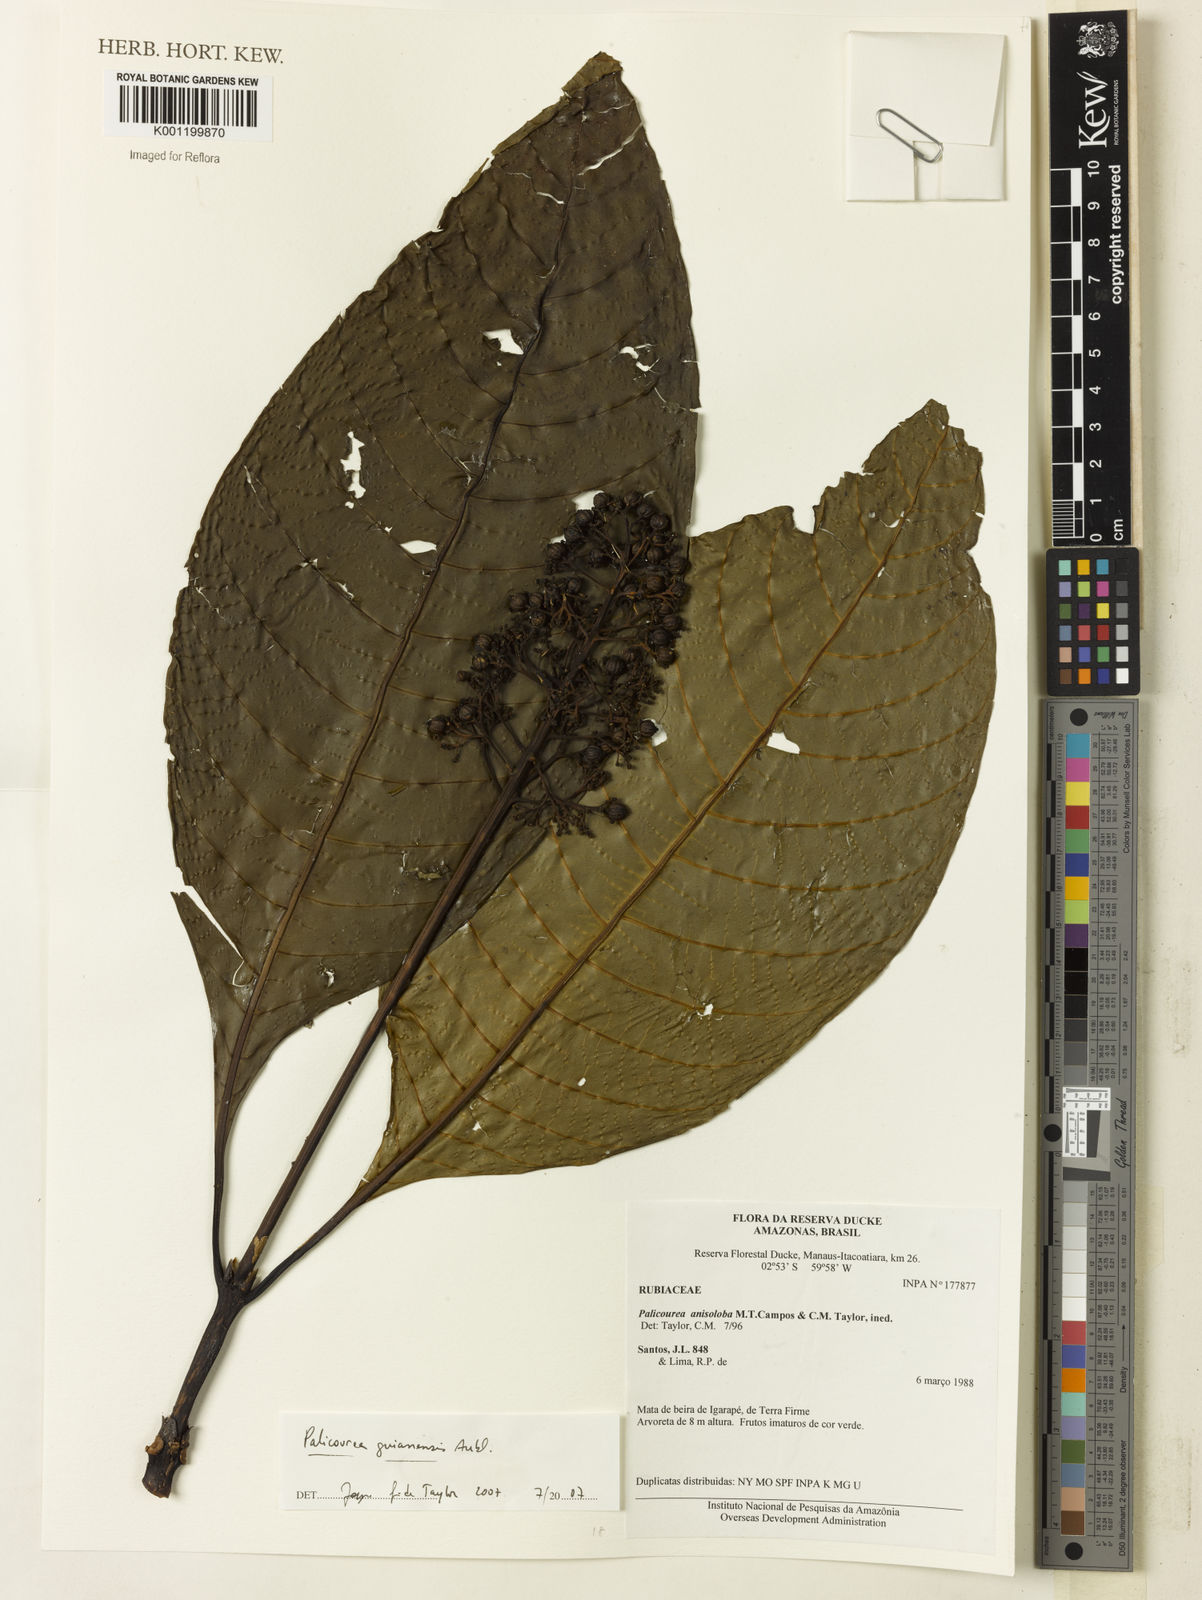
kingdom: Plantae
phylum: Tracheophyta
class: Magnoliopsida
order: Gentianales
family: Rubiaceae
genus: Palicourea
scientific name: Palicourea guianensis
